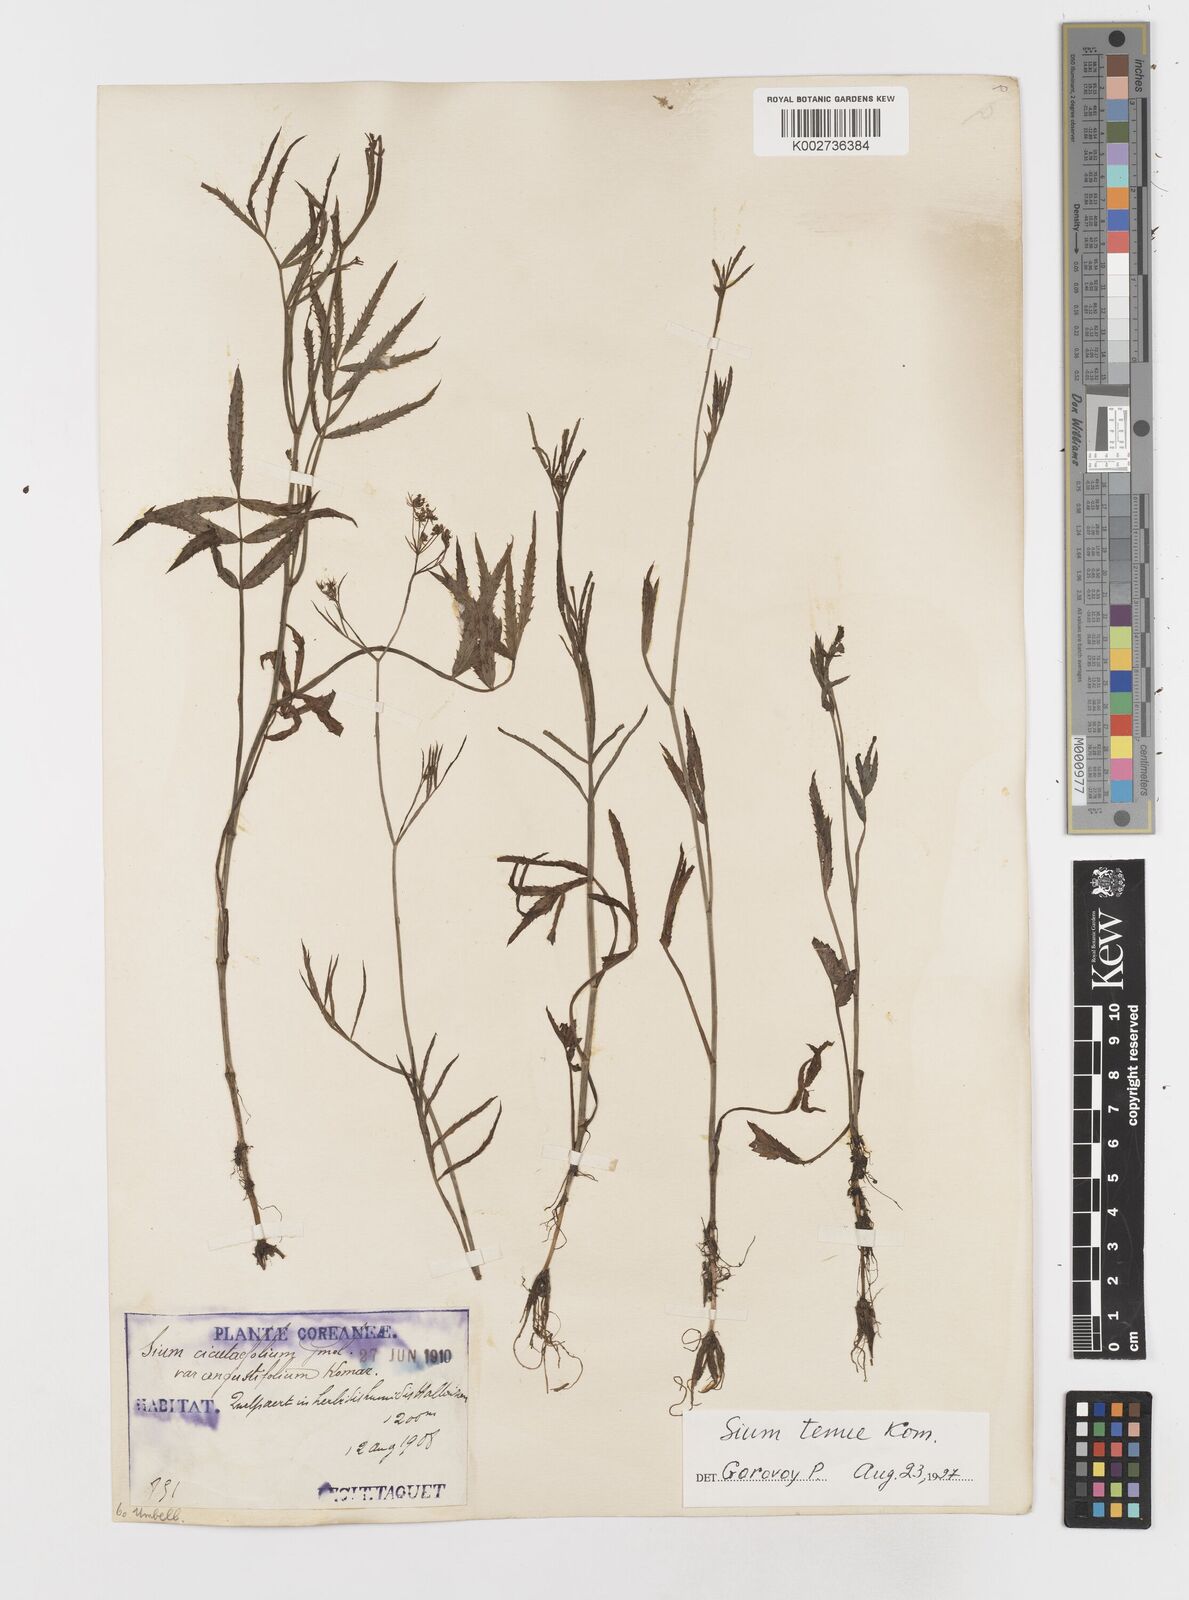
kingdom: Plantae
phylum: Tracheophyta
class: Magnoliopsida
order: Apiales
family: Apiaceae
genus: Sium
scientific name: Sium suave
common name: Hemlock water-parsnip
